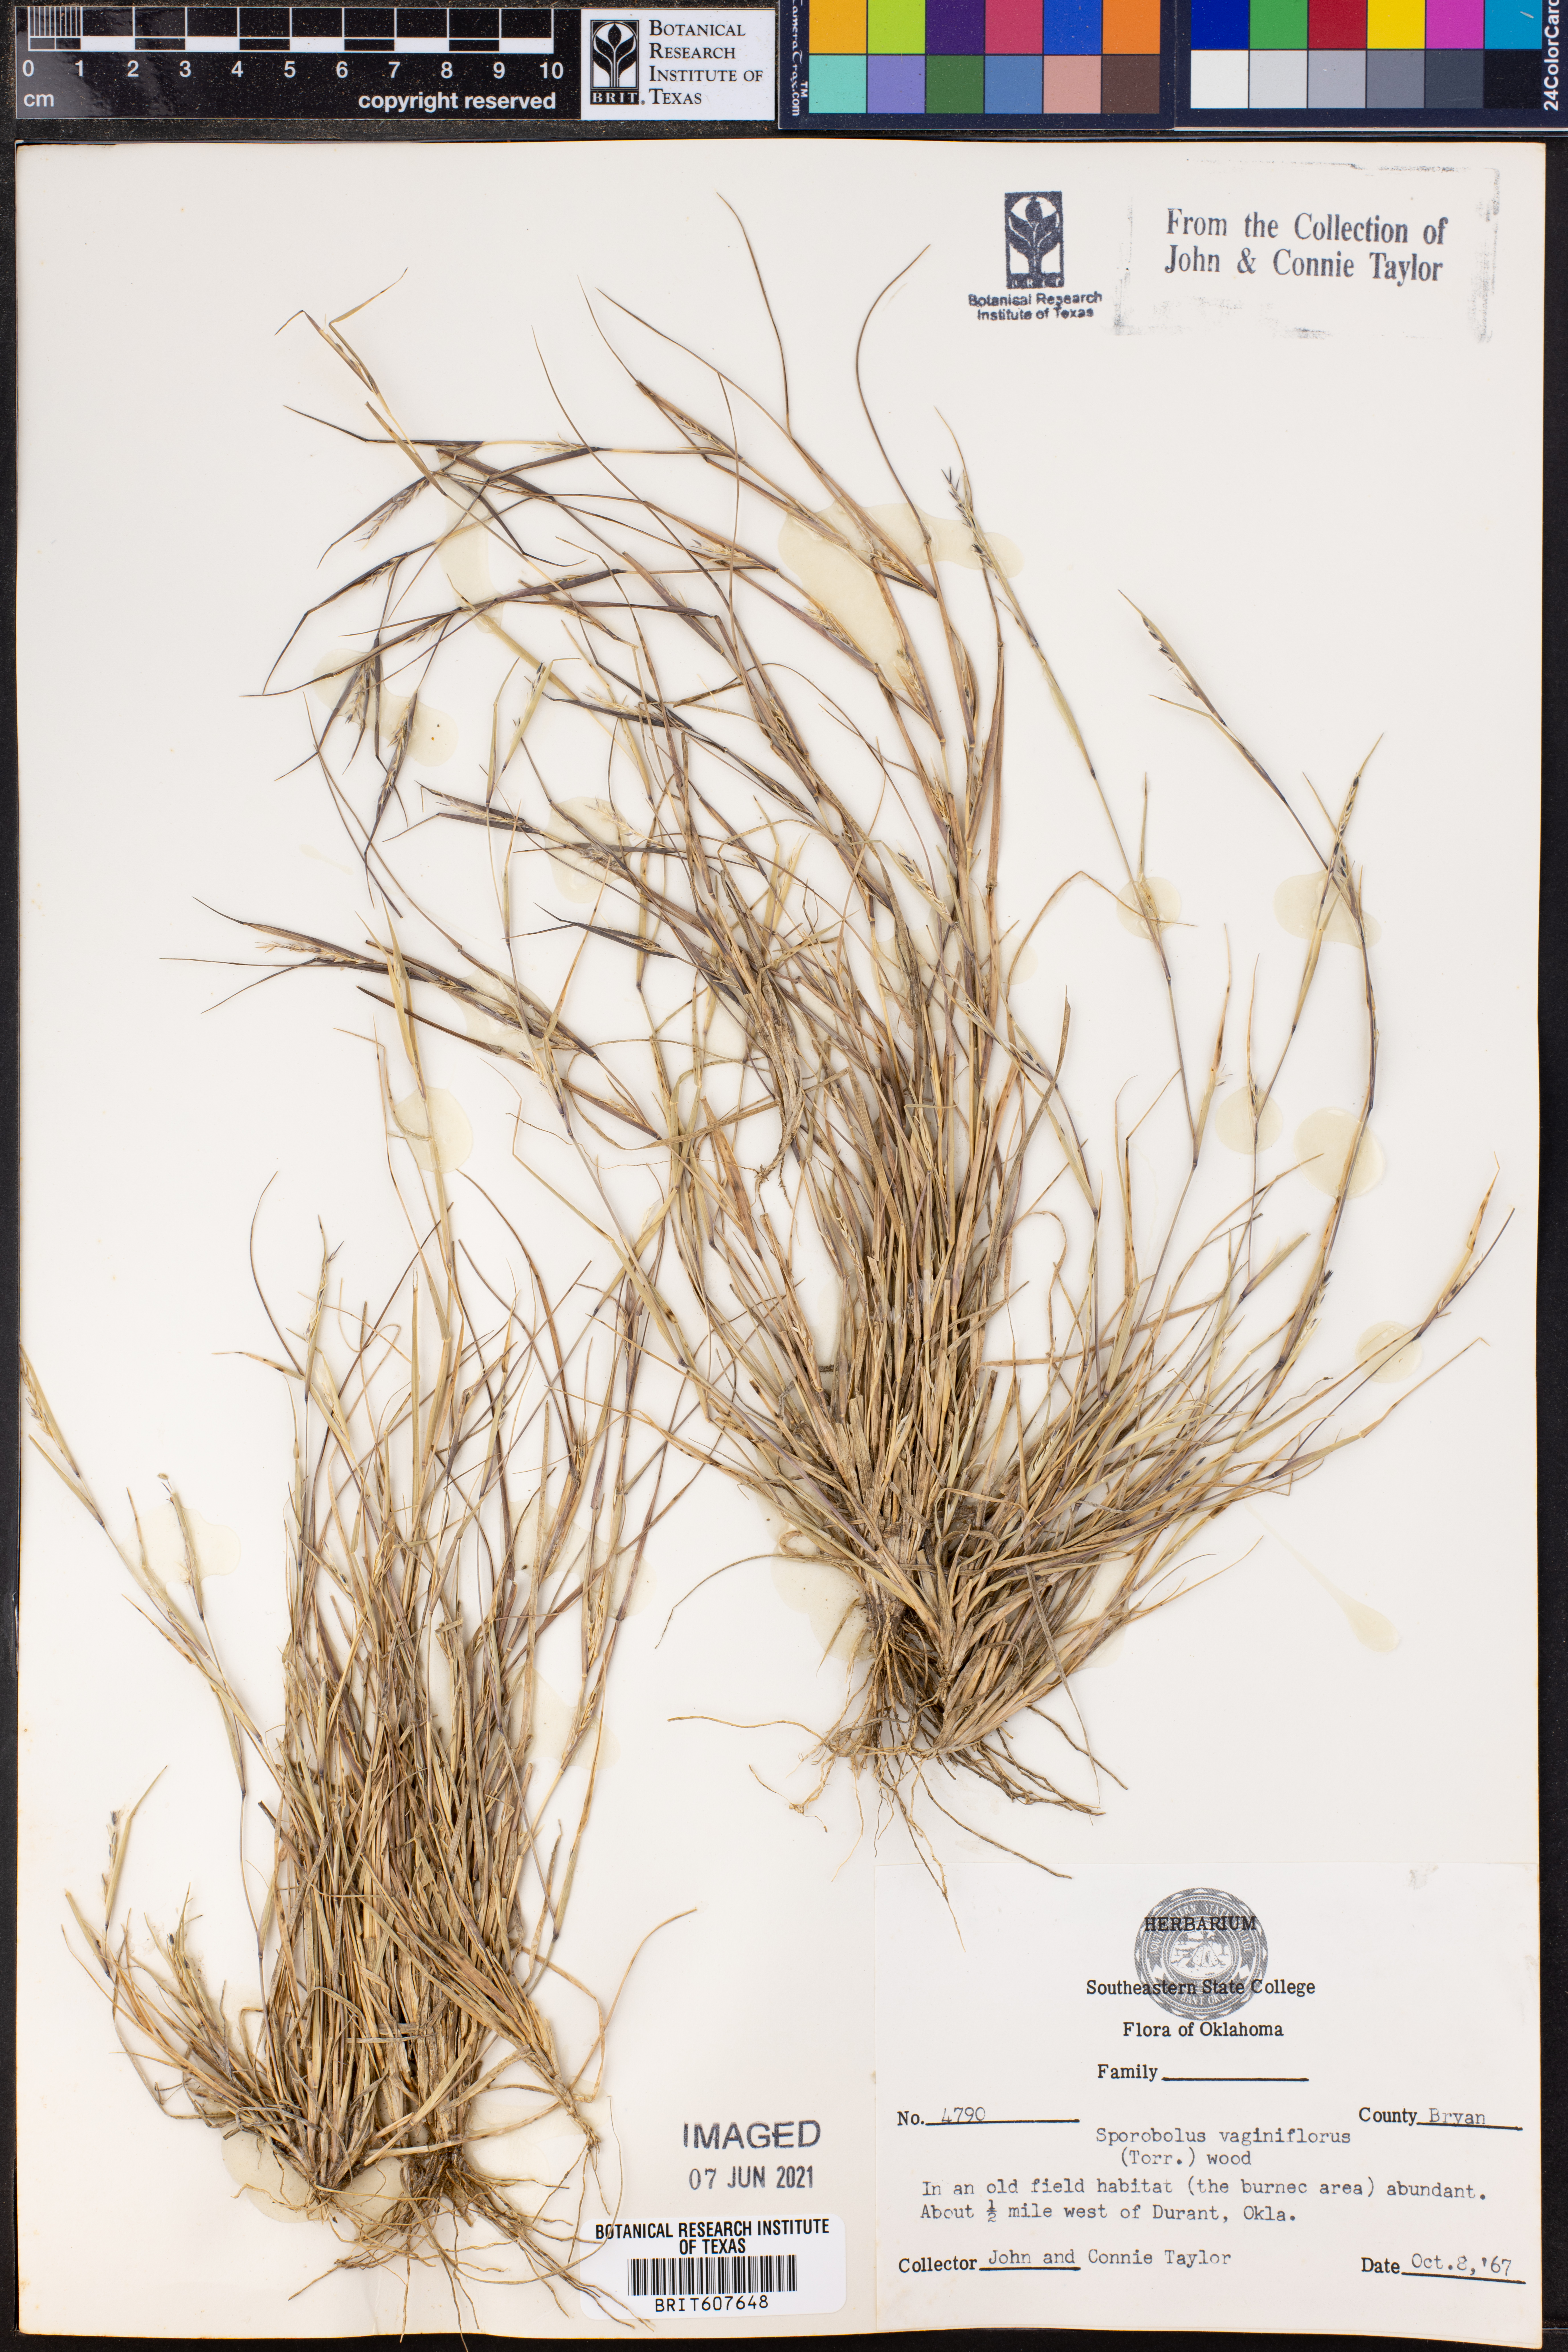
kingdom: Plantae
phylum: Tracheophyta
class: Liliopsida
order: Poales
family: Poaceae
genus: Sporobolus
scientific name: Sporobolus vaginiflorus
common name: Poverty dropseed
